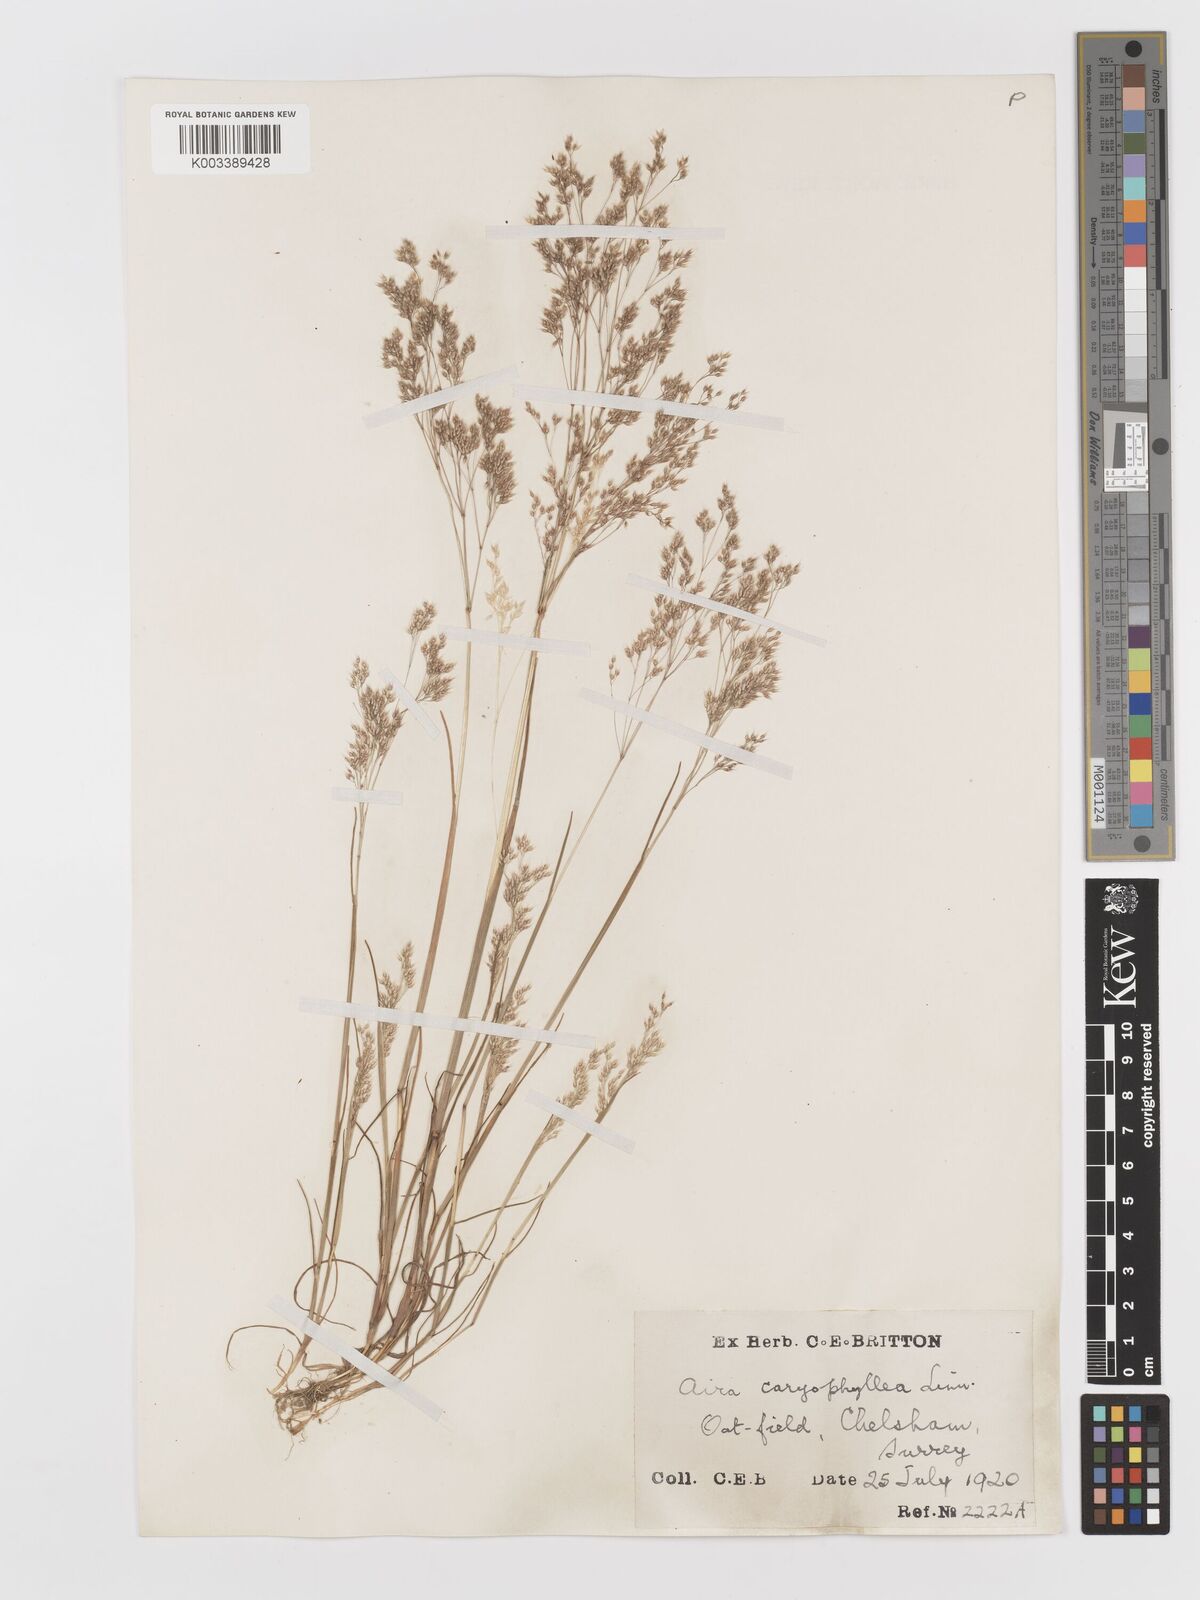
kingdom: Plantae
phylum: Tracheophyta
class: Liliopsida
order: Poales
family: Poaceae
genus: Aira
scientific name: Aira caryophyllea
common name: Silver hairgrass
